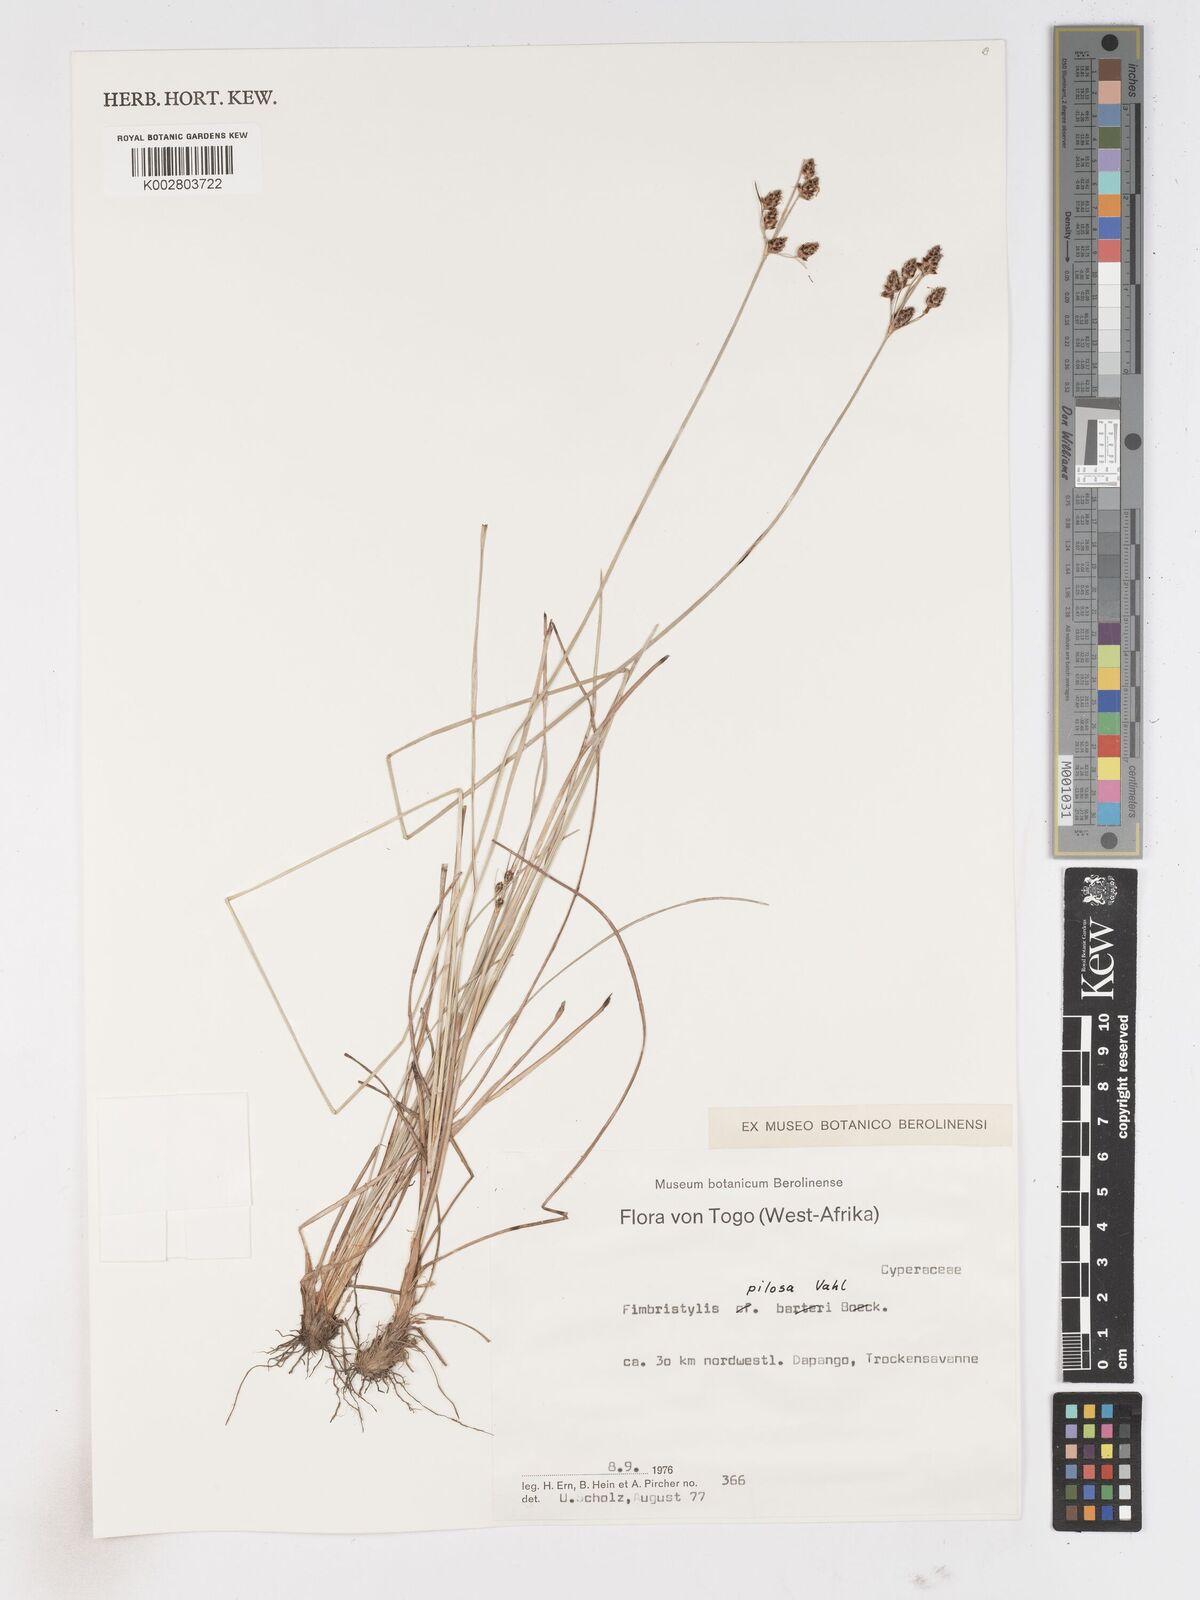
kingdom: Plantae
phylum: Tracheophyta
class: Liliopsida
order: Poales
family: Cyperaceae
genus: Bulbostylis
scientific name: Bulbostylis pilosa
